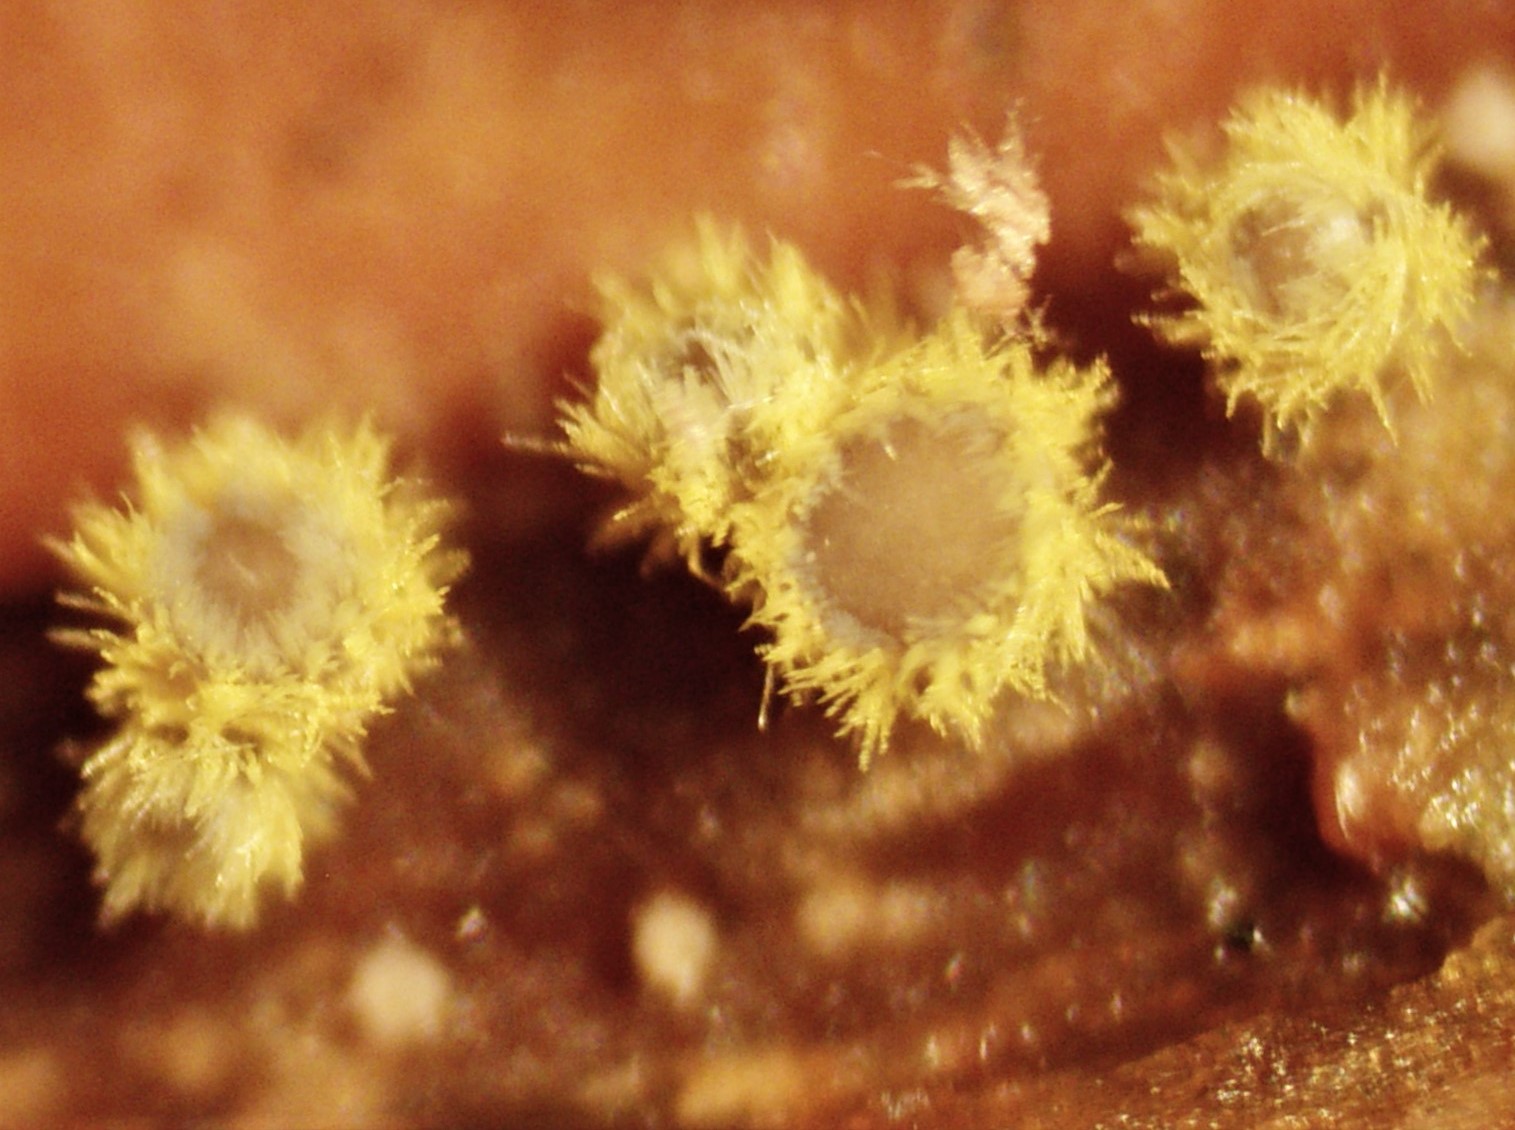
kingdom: Fungi
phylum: Ascomycota
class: Leotiomycetes
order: Helotiales
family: Lachnaceae
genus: Lachnum
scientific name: Lachnum sulphureum
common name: svovlhåret frynseskive
